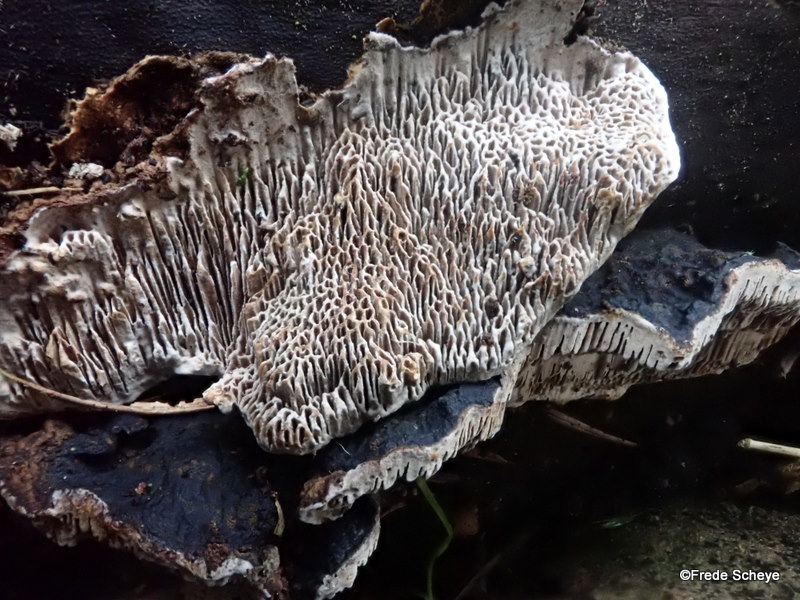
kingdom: Fungi
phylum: Basidiomycota
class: Agaricomycetes
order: Polyporales
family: Polyporaceae
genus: Podofomes
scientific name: Podofomes mollis
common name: blød begporesvamp
